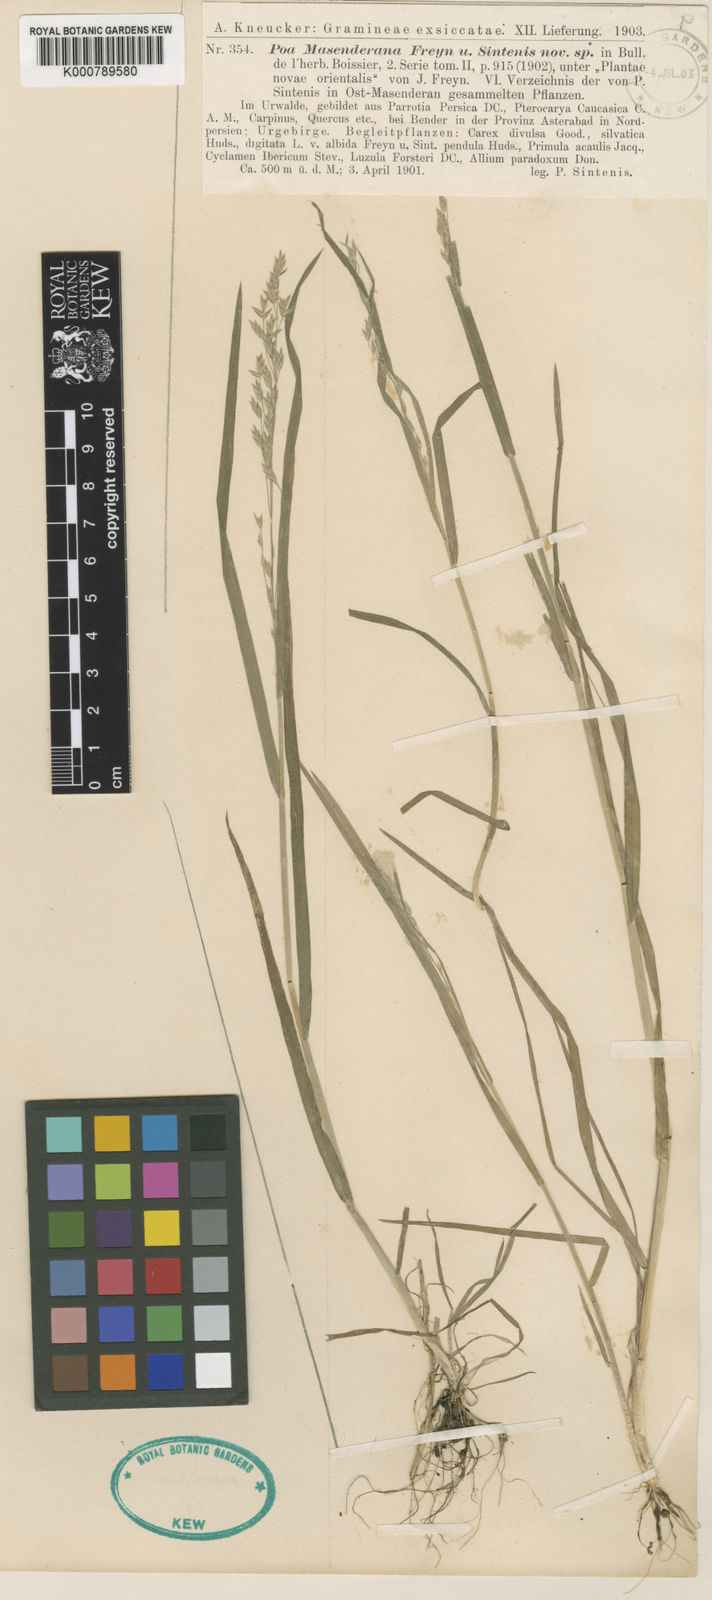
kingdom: Plantae
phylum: Tracheophyta
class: Liliopsida
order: Poales
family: Poaceae
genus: Poa
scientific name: Poa masenderana
